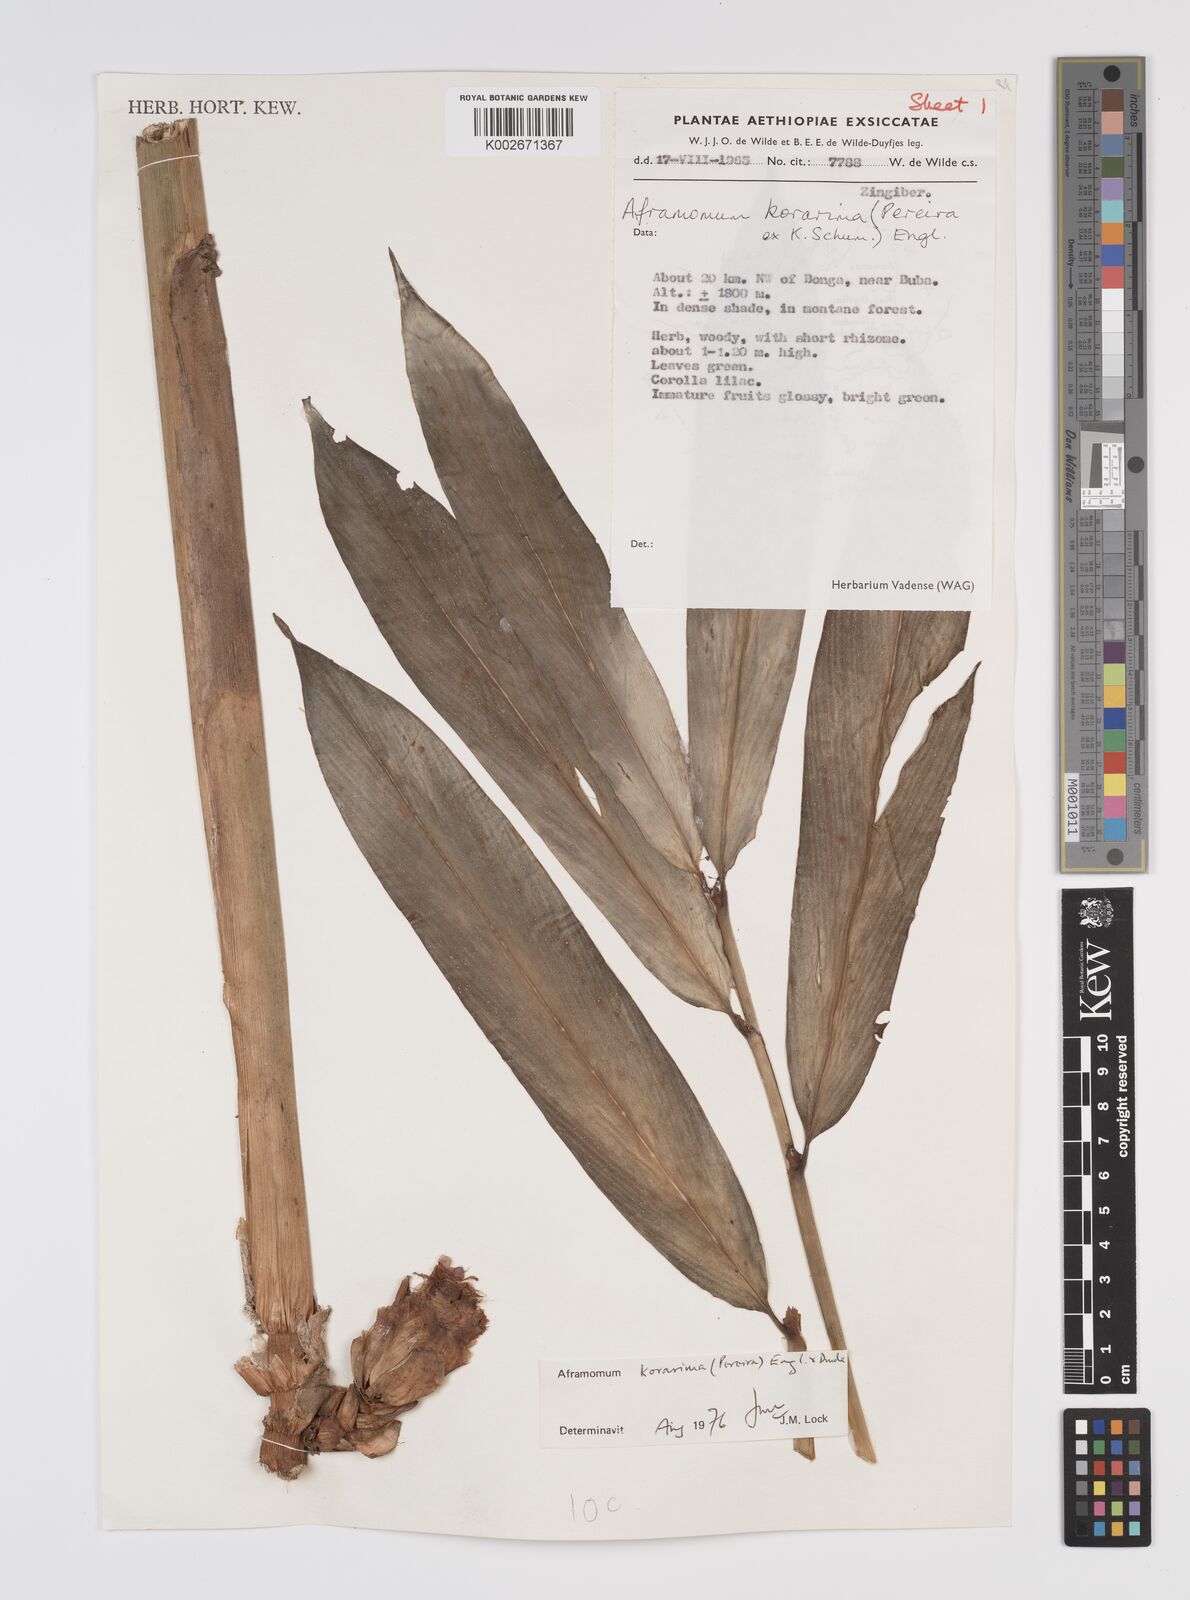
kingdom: Plantae
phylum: Tracheophyta
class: Liliopsida
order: Zingiberales
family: Zingiberaceae
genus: Aframomum
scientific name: Aframomum corrorima
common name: Ethiopian cardamom
